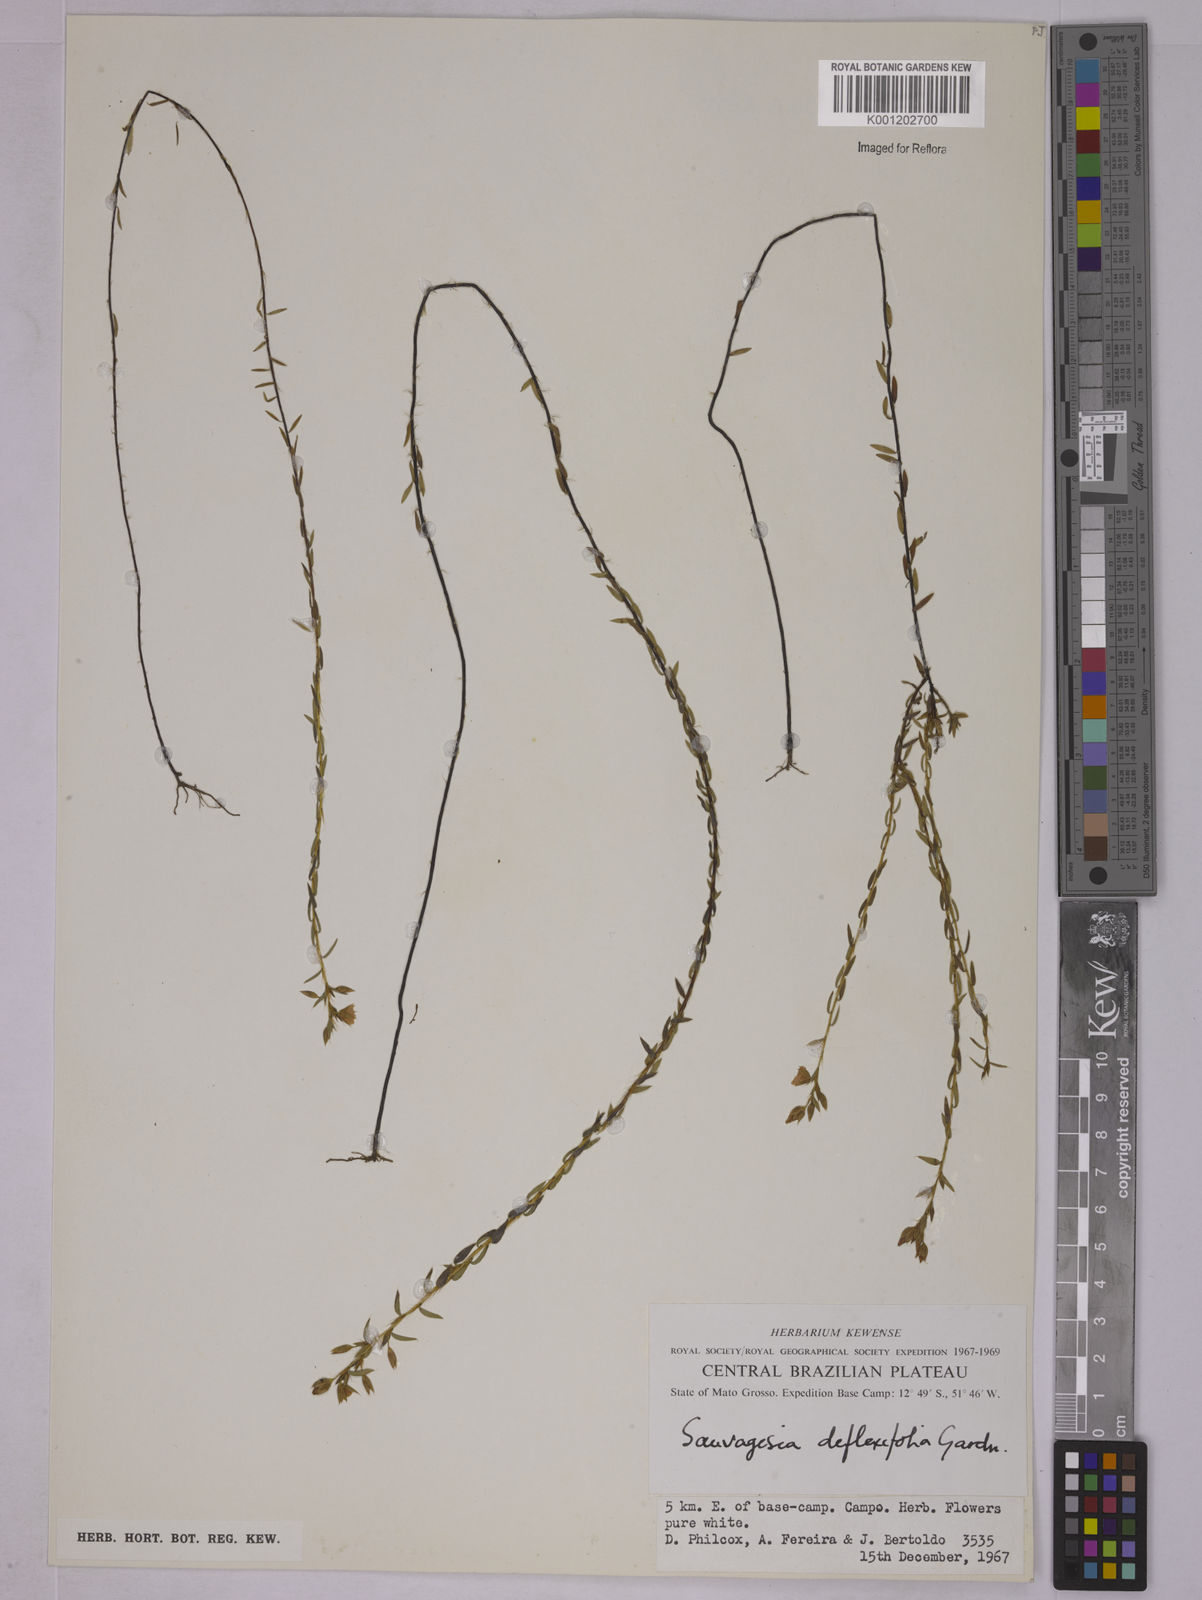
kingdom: Plantae
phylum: Tracheophyta
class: Magnoliopsida
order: Malpighiales
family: Ochnaceae
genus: Sauvagesia
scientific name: Sauvagesia deflexifolia
